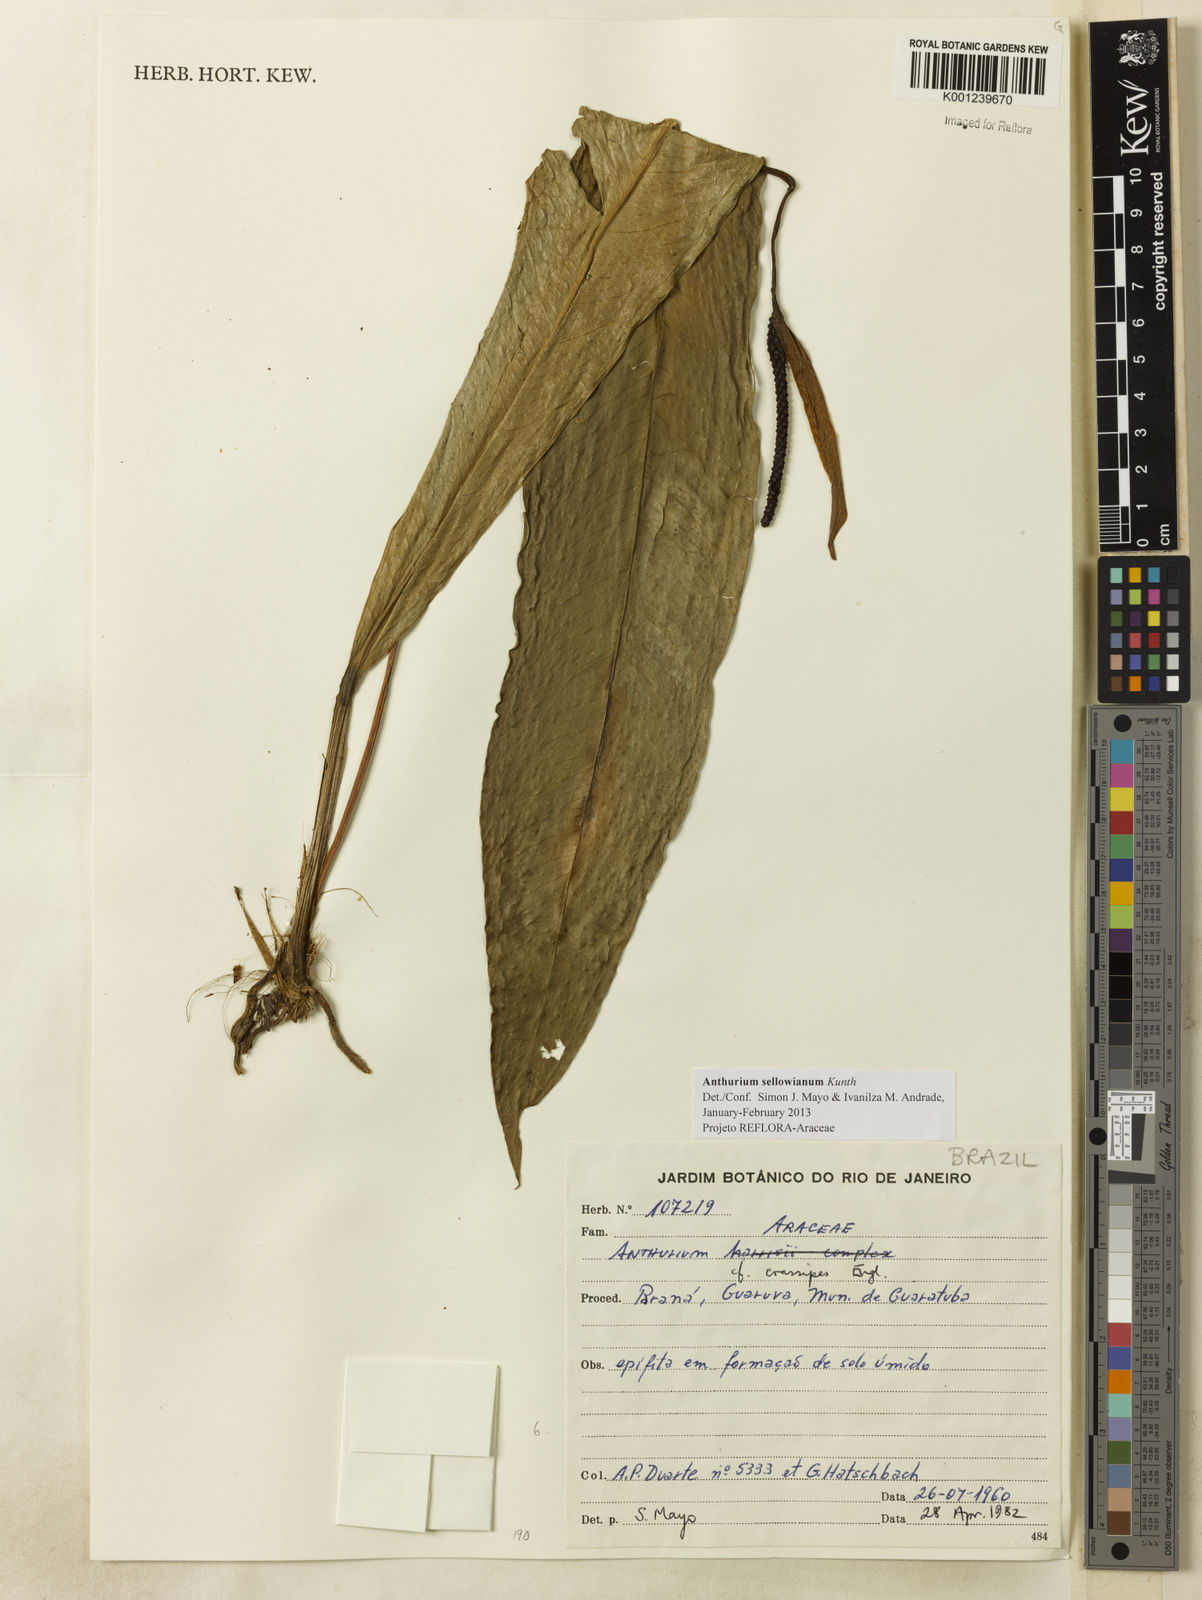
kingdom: Plantae
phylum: Tracheophyta
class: Liliopsida
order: Alismatales
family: Araceae
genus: Anthurium
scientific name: Anthurium sellowianum
